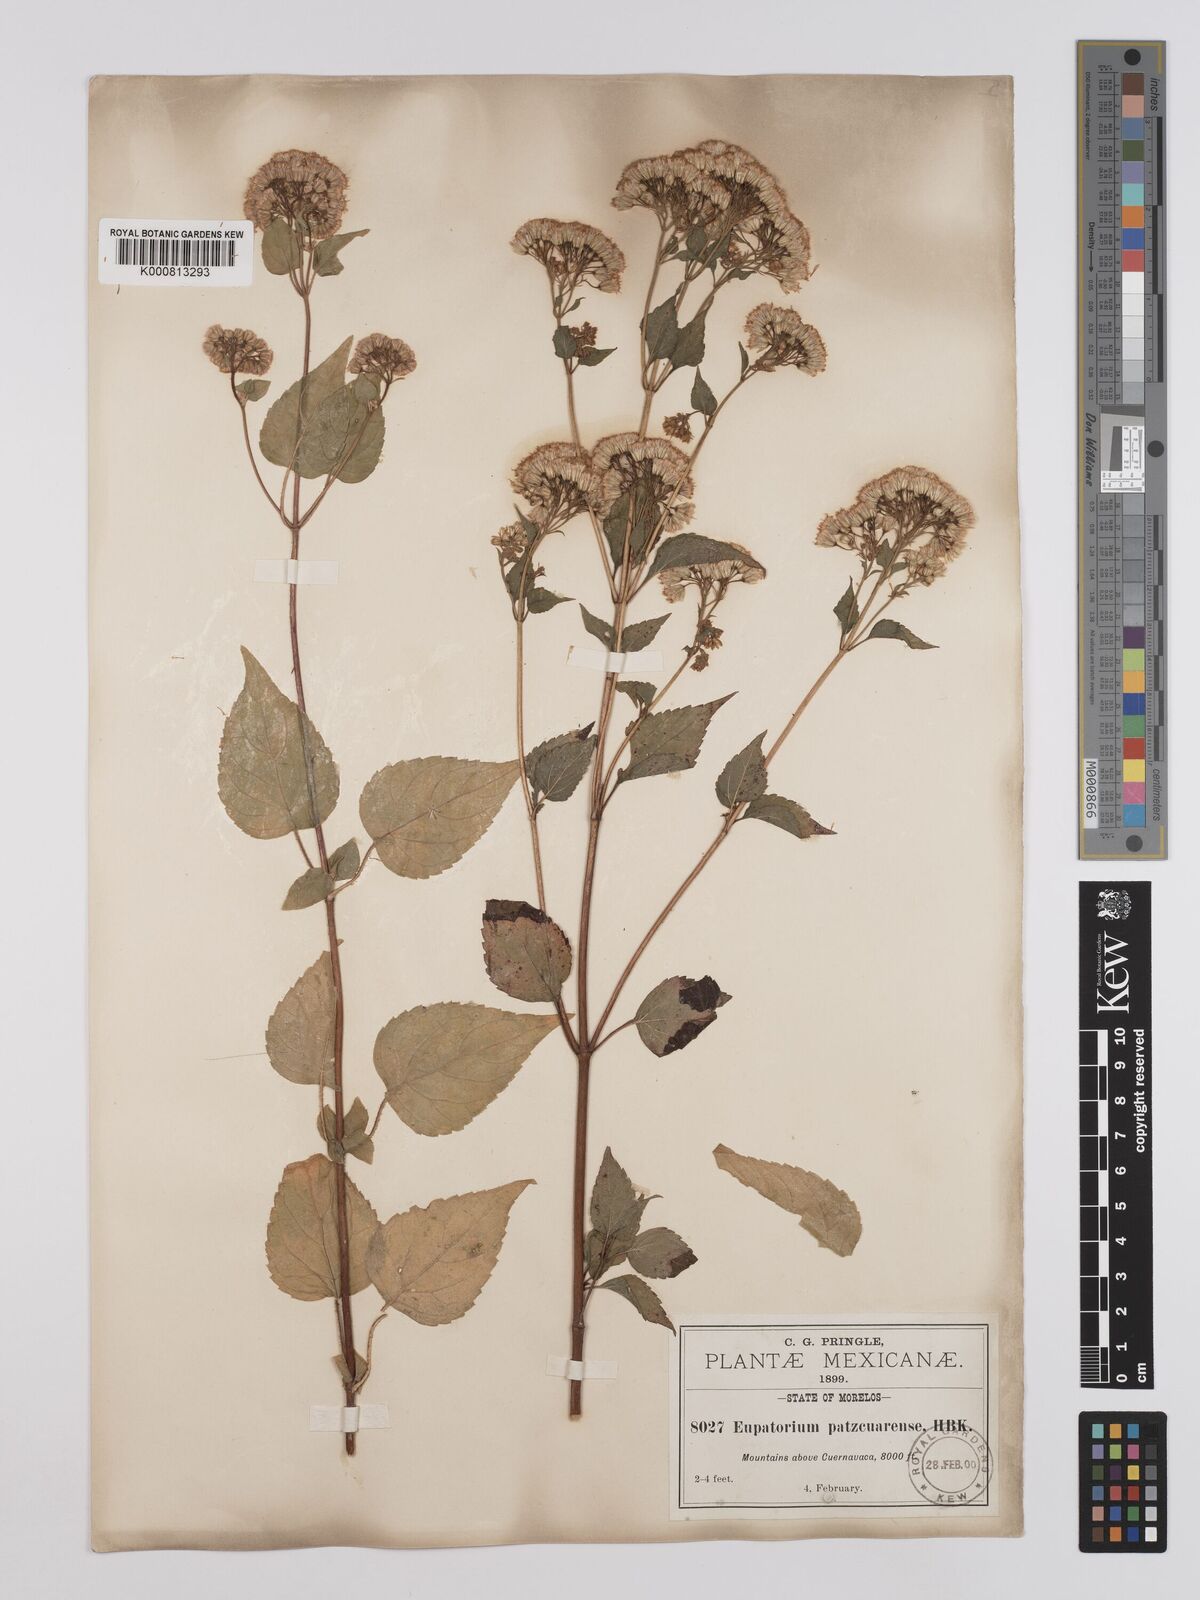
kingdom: Plantae
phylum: Tracheophyta
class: Magnoliopsida
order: Asterales
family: Asteraceae
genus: Ageratina
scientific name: Ageratina pazcuarensis
